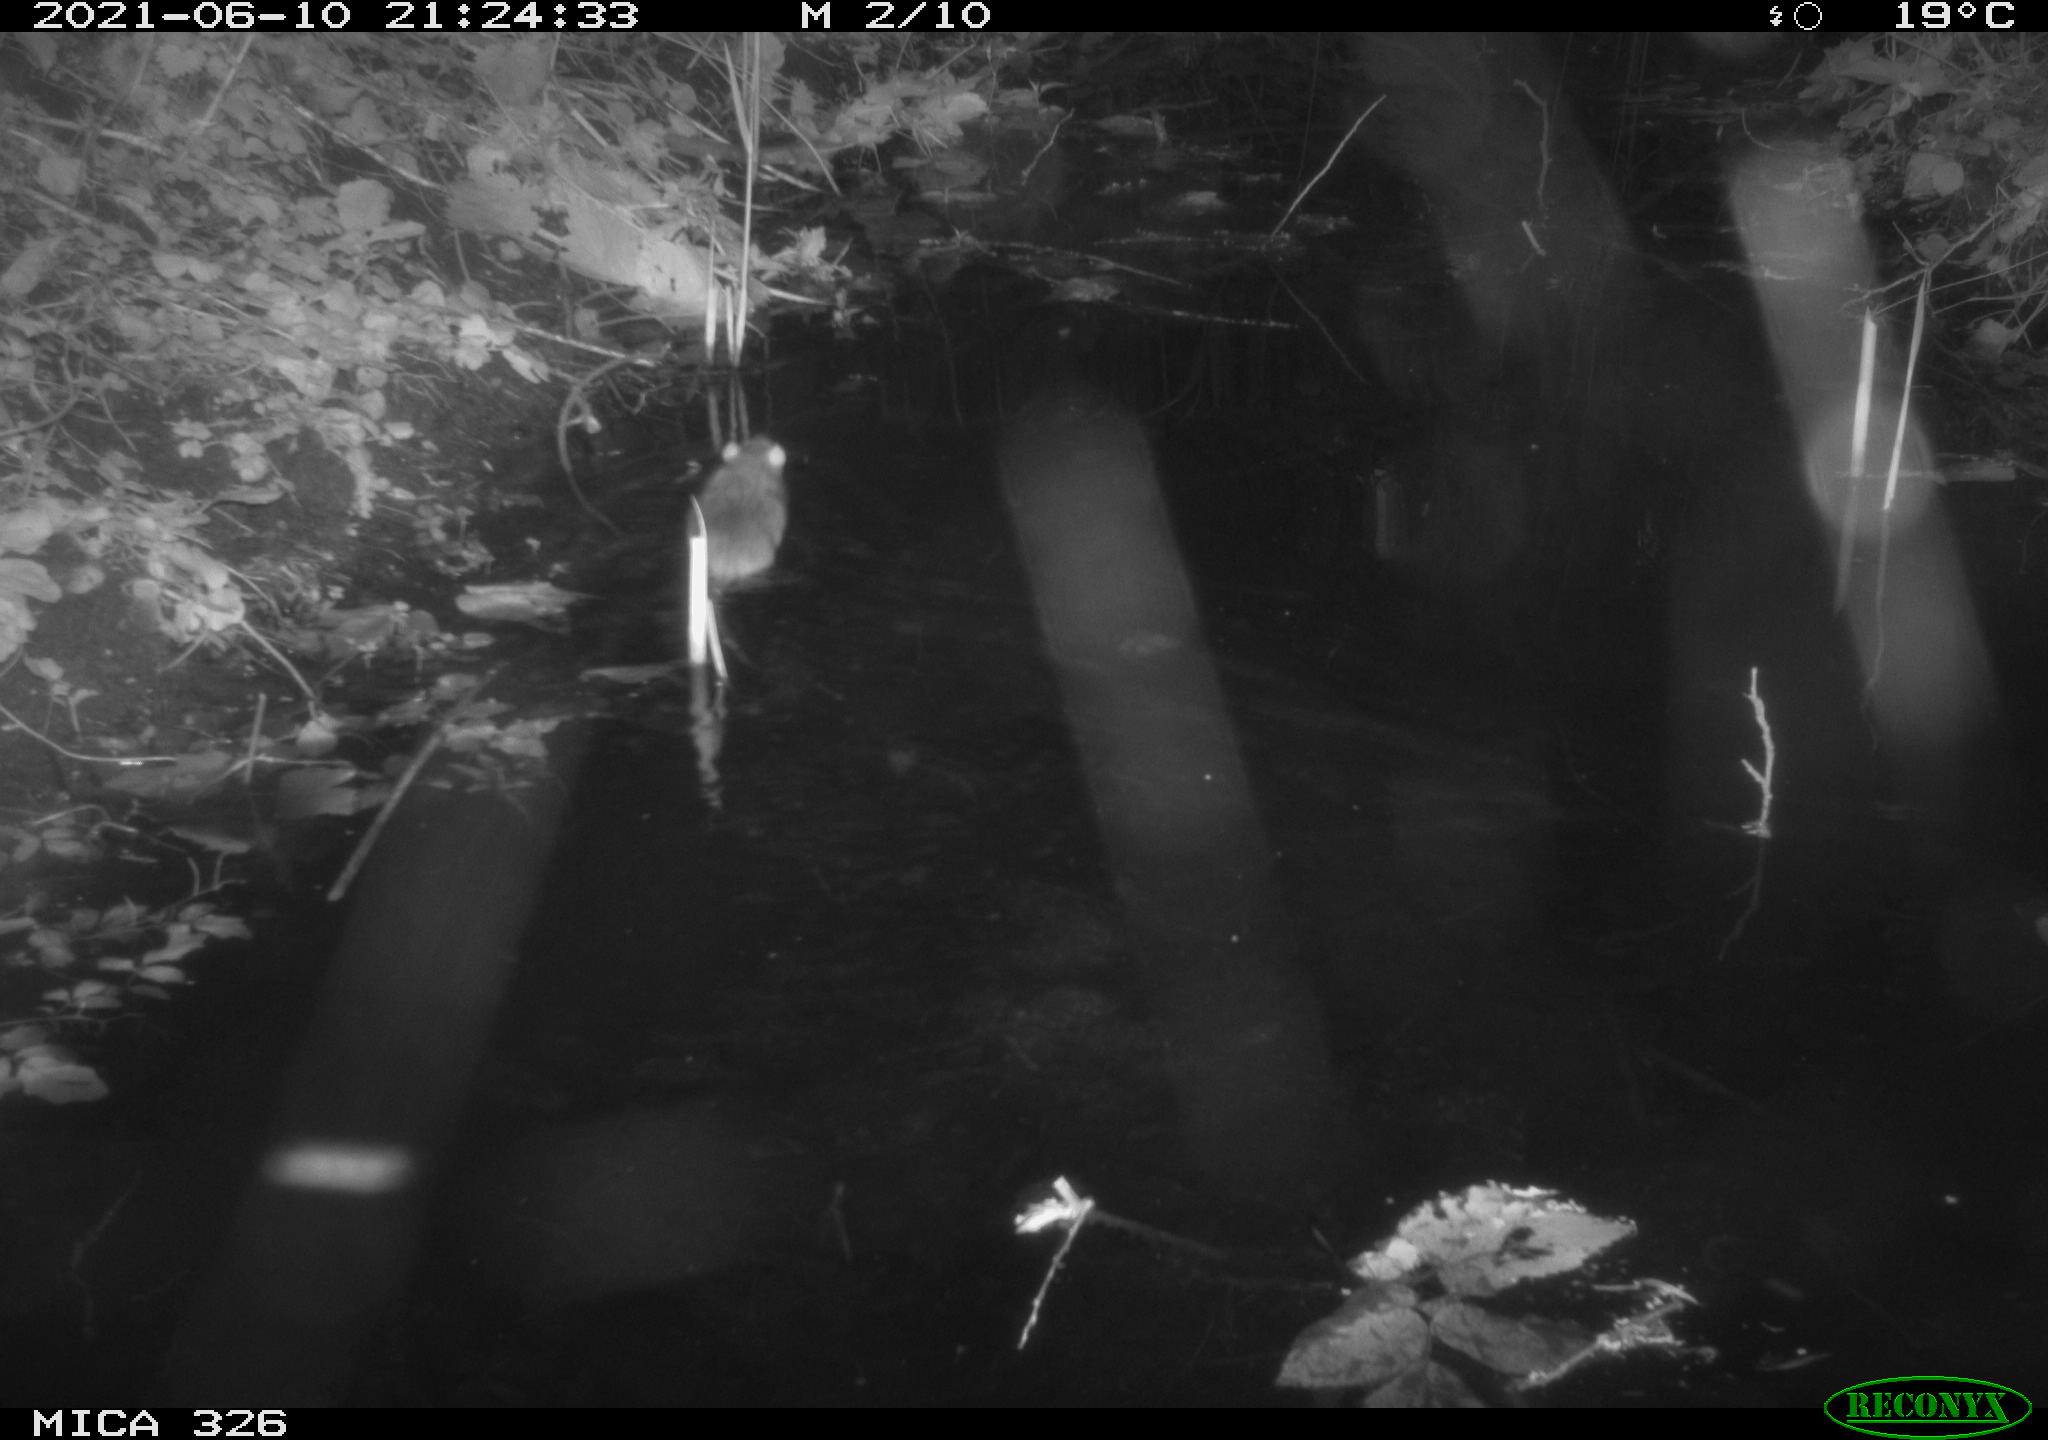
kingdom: Animalia
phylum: Chordata
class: Mammalia
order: Rodentia
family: Muridae
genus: Rattus
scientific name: Rattus norvegicus
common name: Brown rat
